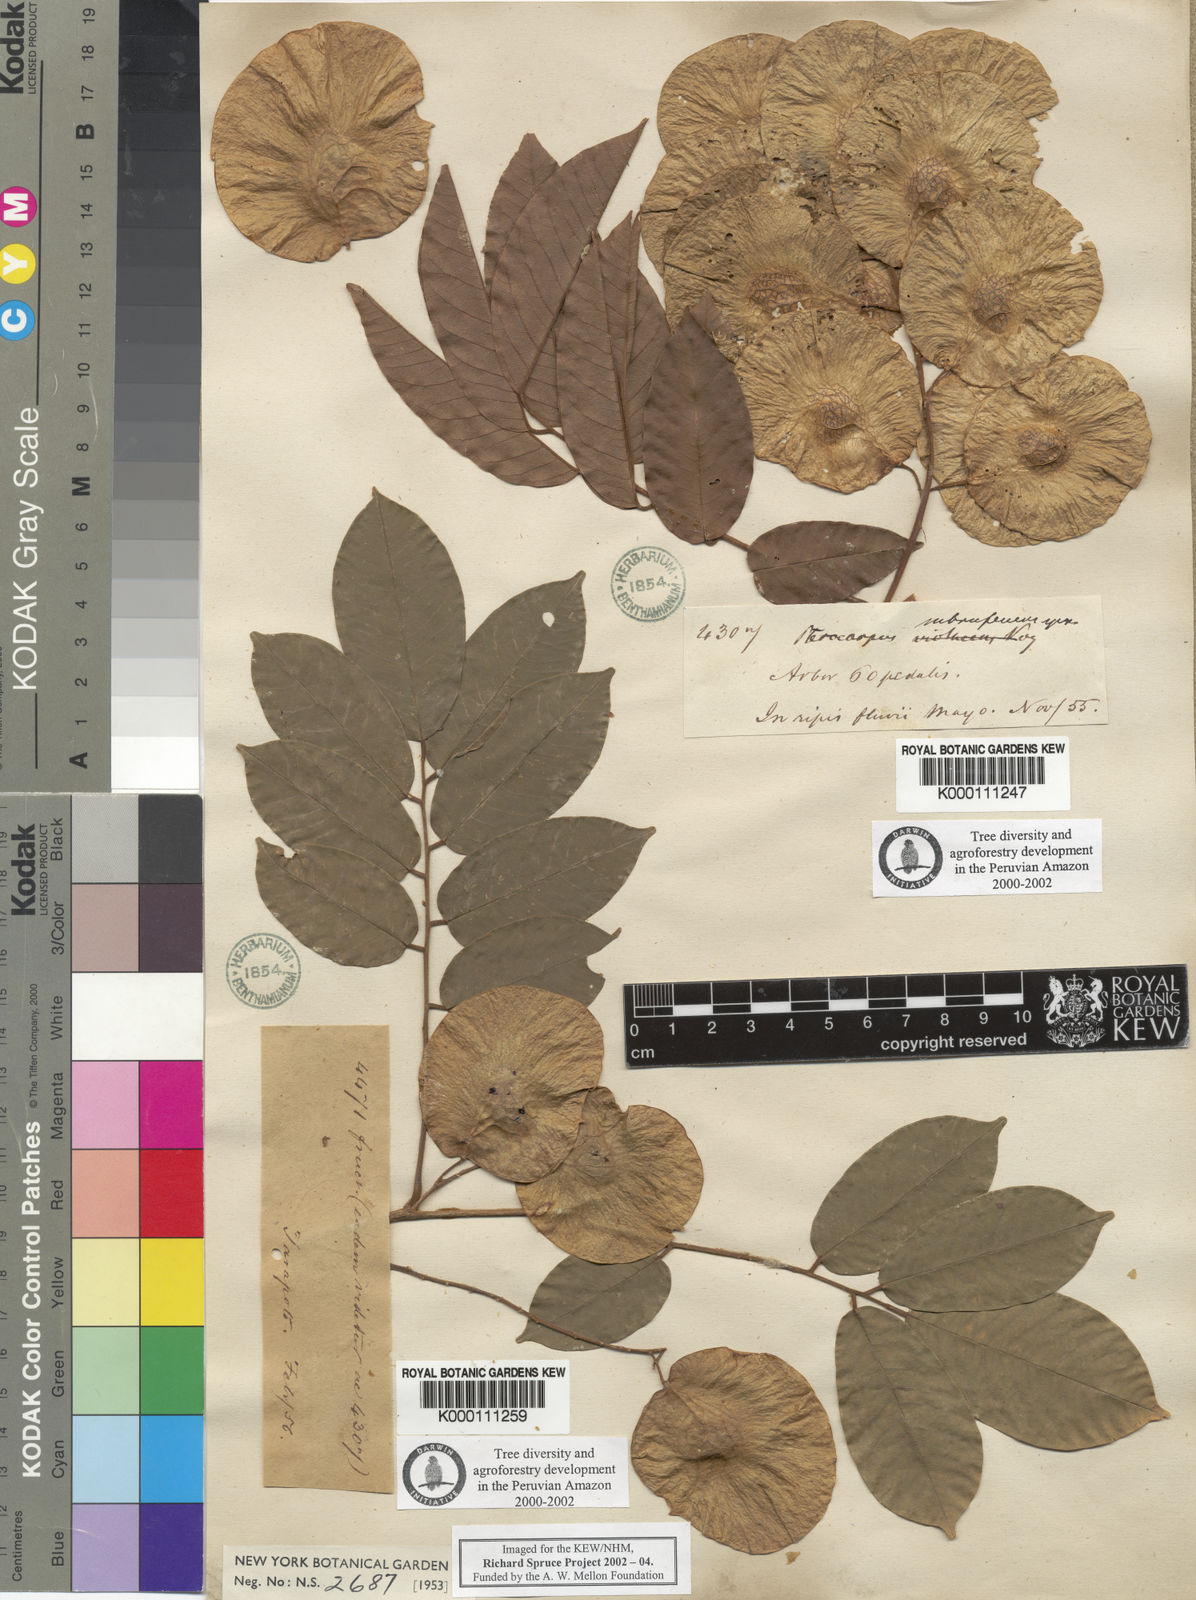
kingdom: Plantae
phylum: Tracheophyta
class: Magnoliopsida
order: Fabales
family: Fabaceae
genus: Pterocarpus
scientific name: Pterocarpus rohrii
